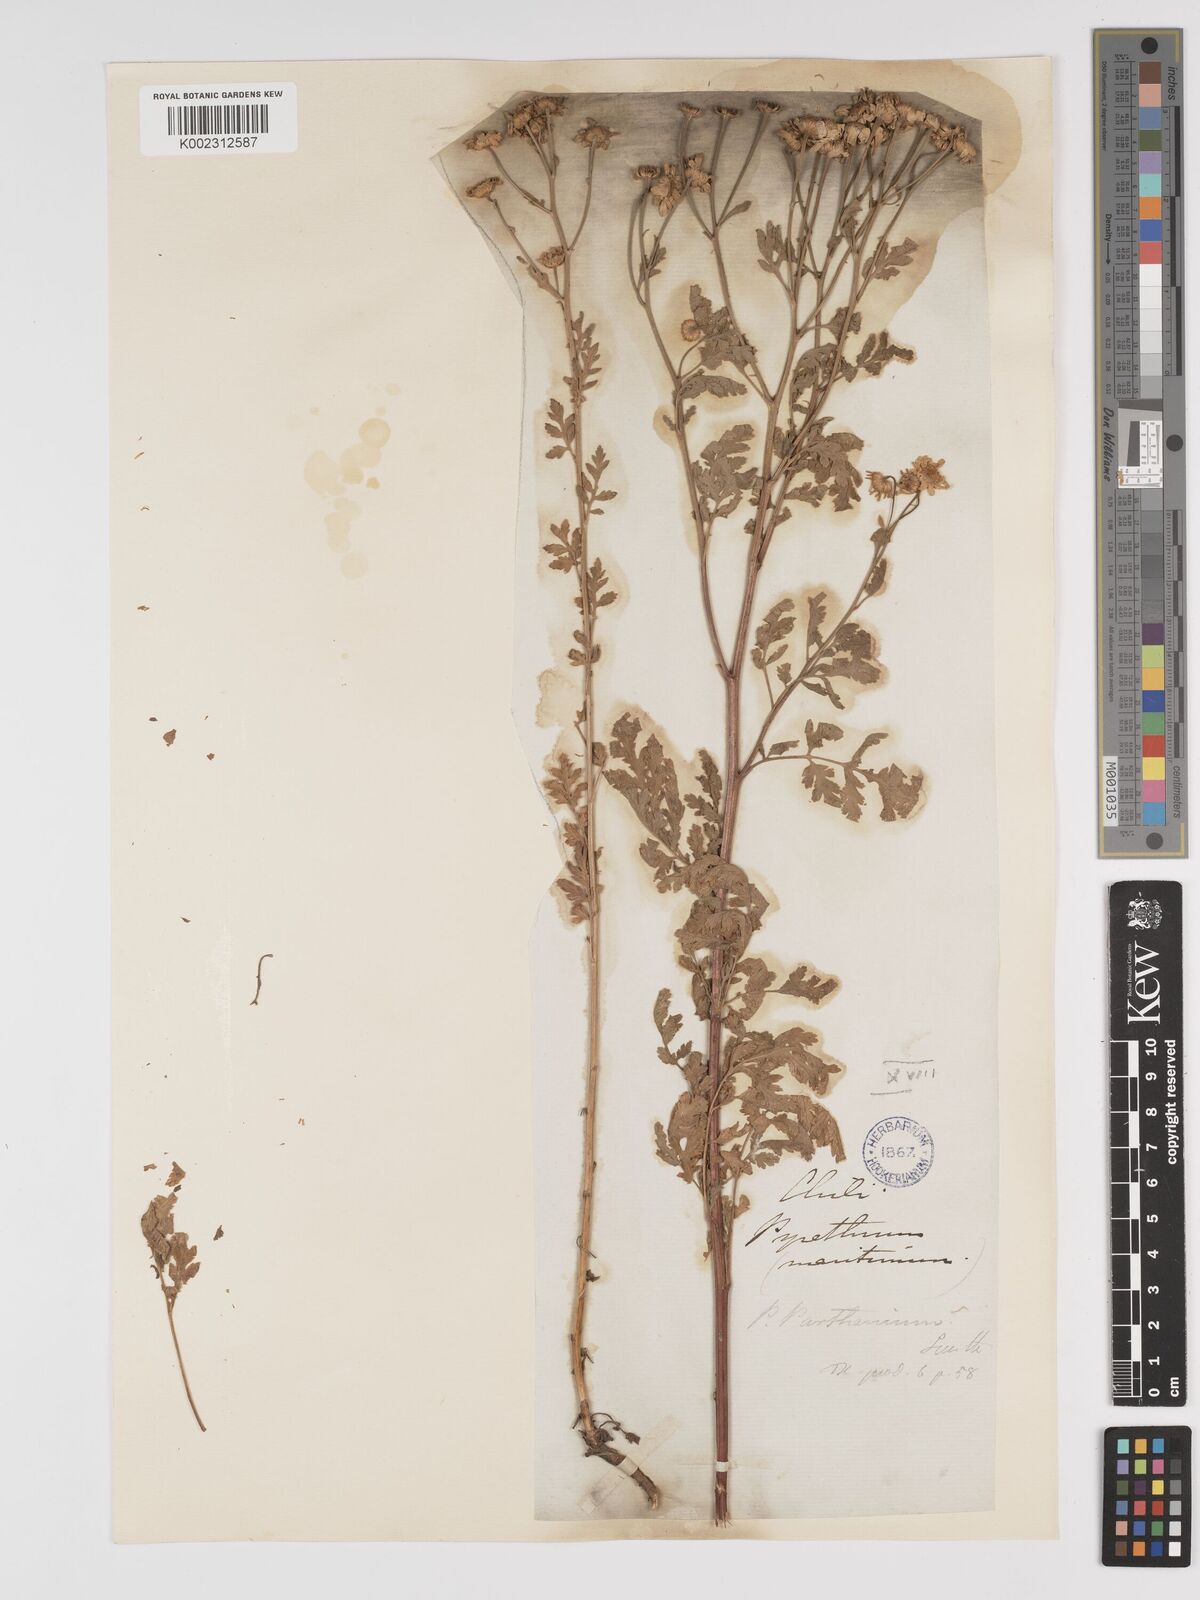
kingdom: Plantae
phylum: Tracheophyta
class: Magnoliopsida
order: Asterales
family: Asteraceae
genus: Tanacetum
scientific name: Tanacetum parthenium
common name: Feverfew
